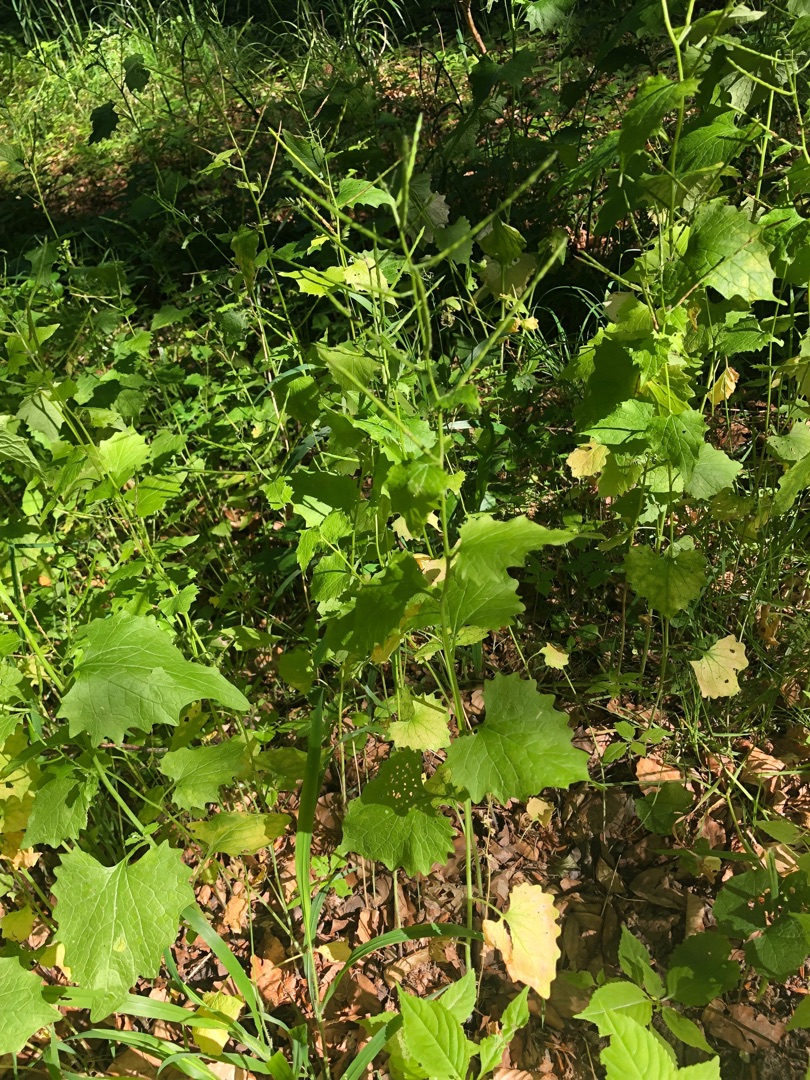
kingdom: Plantae
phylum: Tracheophyta
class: Magnoliopsida
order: Brassicales
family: Brassicaceae
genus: Alliaria
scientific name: Alliaria petiolata
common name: Løgkarse
